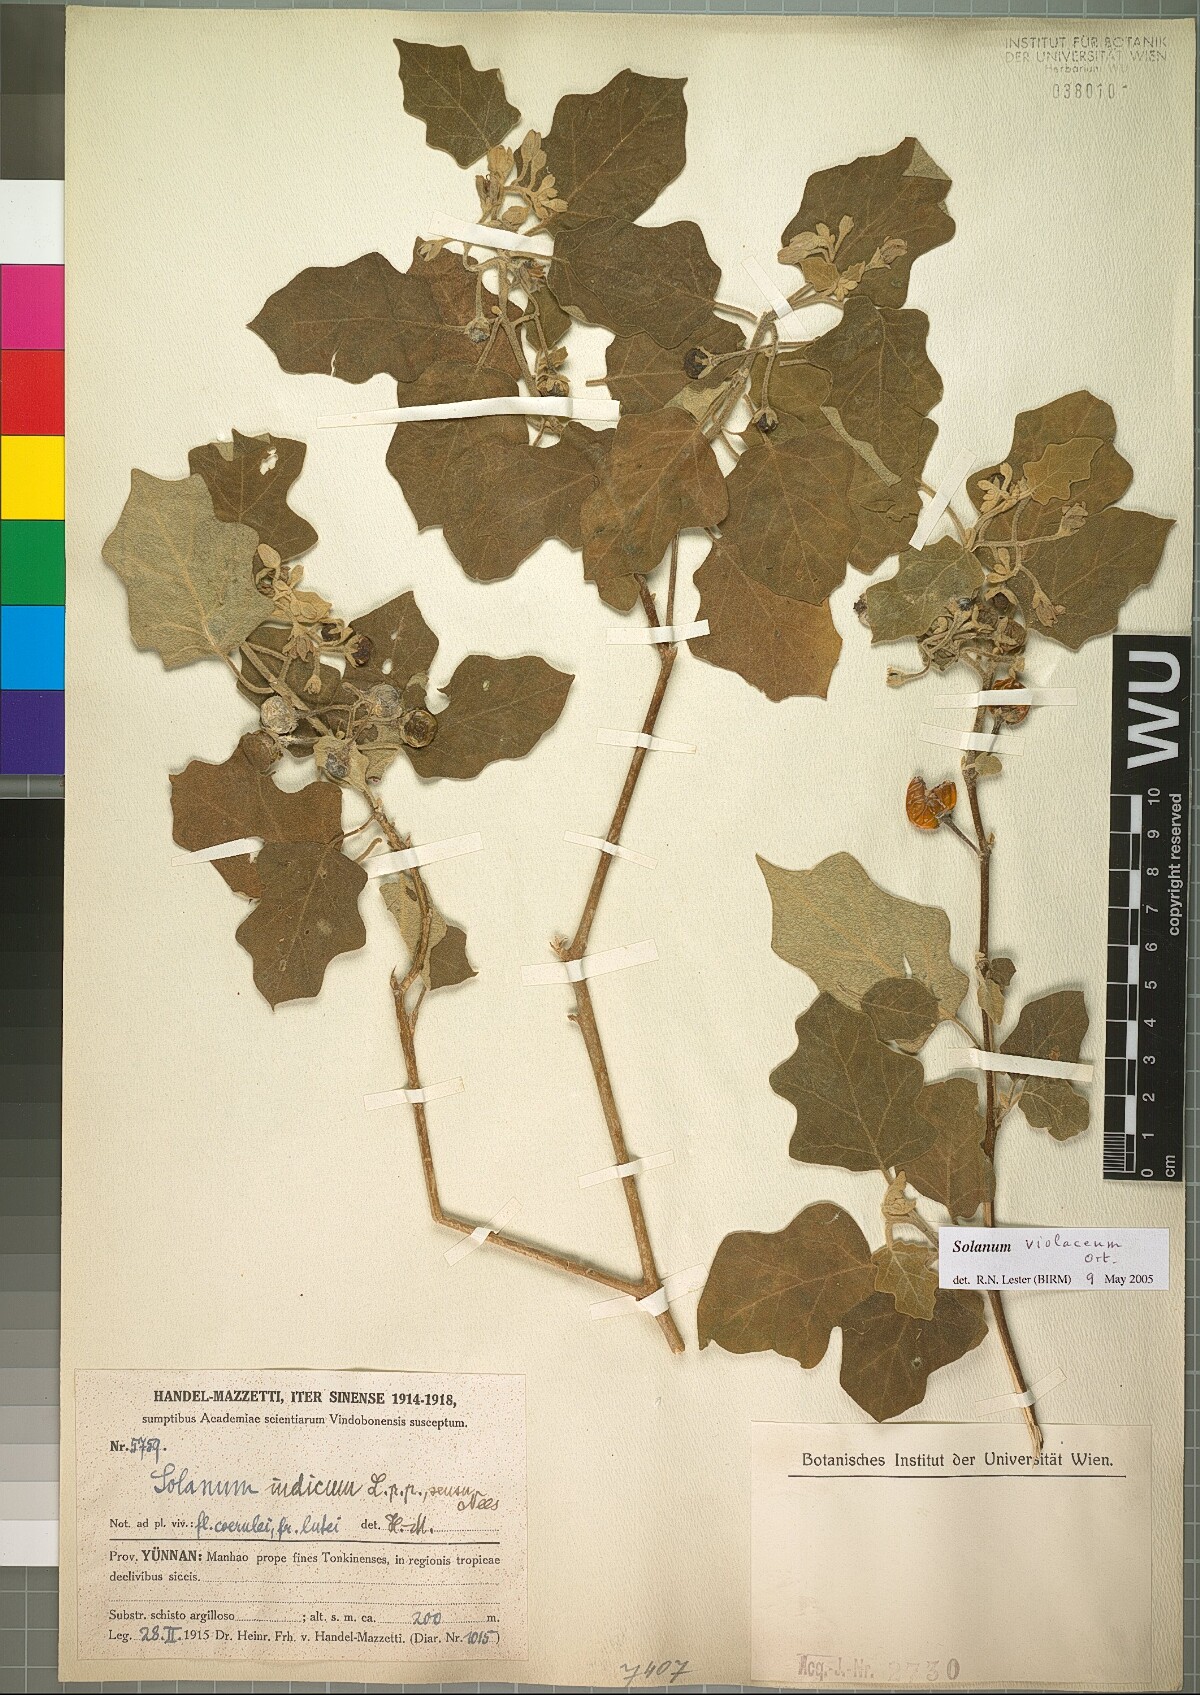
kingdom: Plantae
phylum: Tracheophyta
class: Magnoliopsida
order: Solanales
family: Solanaceae
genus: Solanum
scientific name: Solanum violaceum
